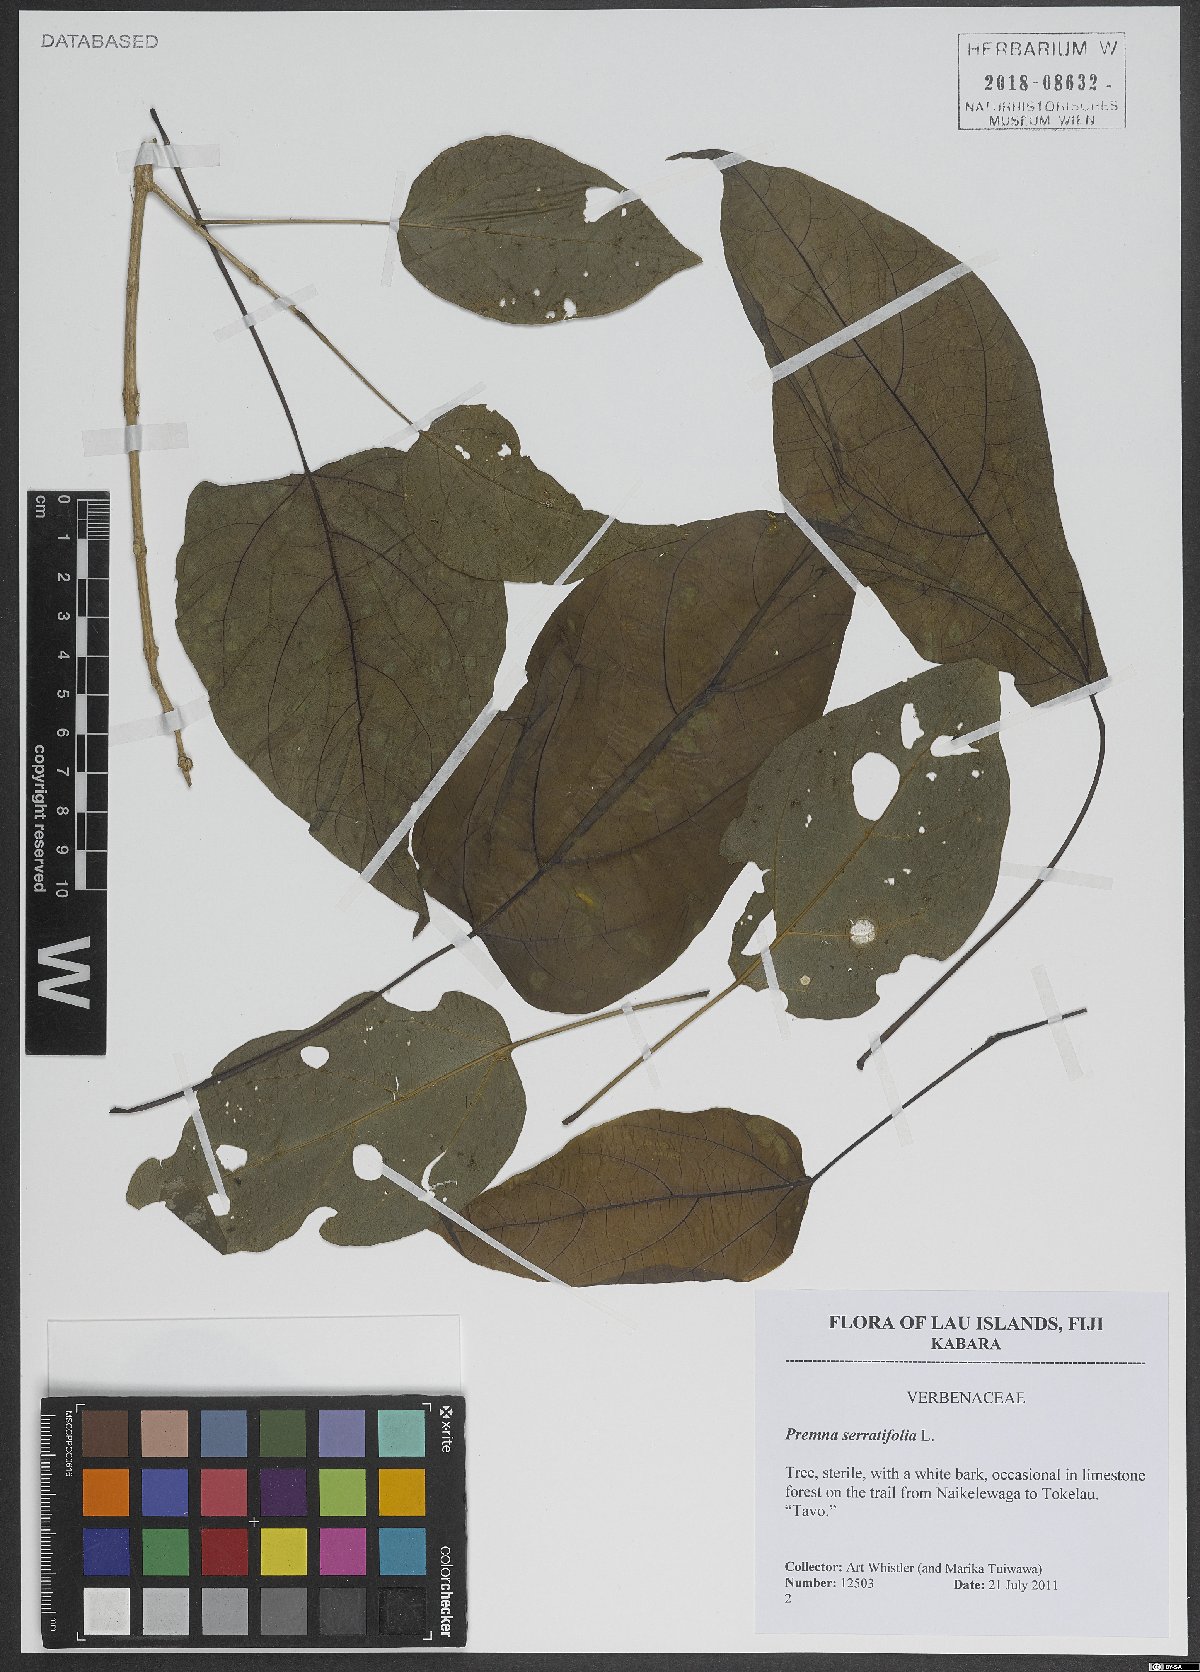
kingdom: Plantae
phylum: Tracheophyta
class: Magnoliopsida
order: Lamiales
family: Lamiaceae
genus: Premna
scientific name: Premna serratifolia
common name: Bastard guelder
